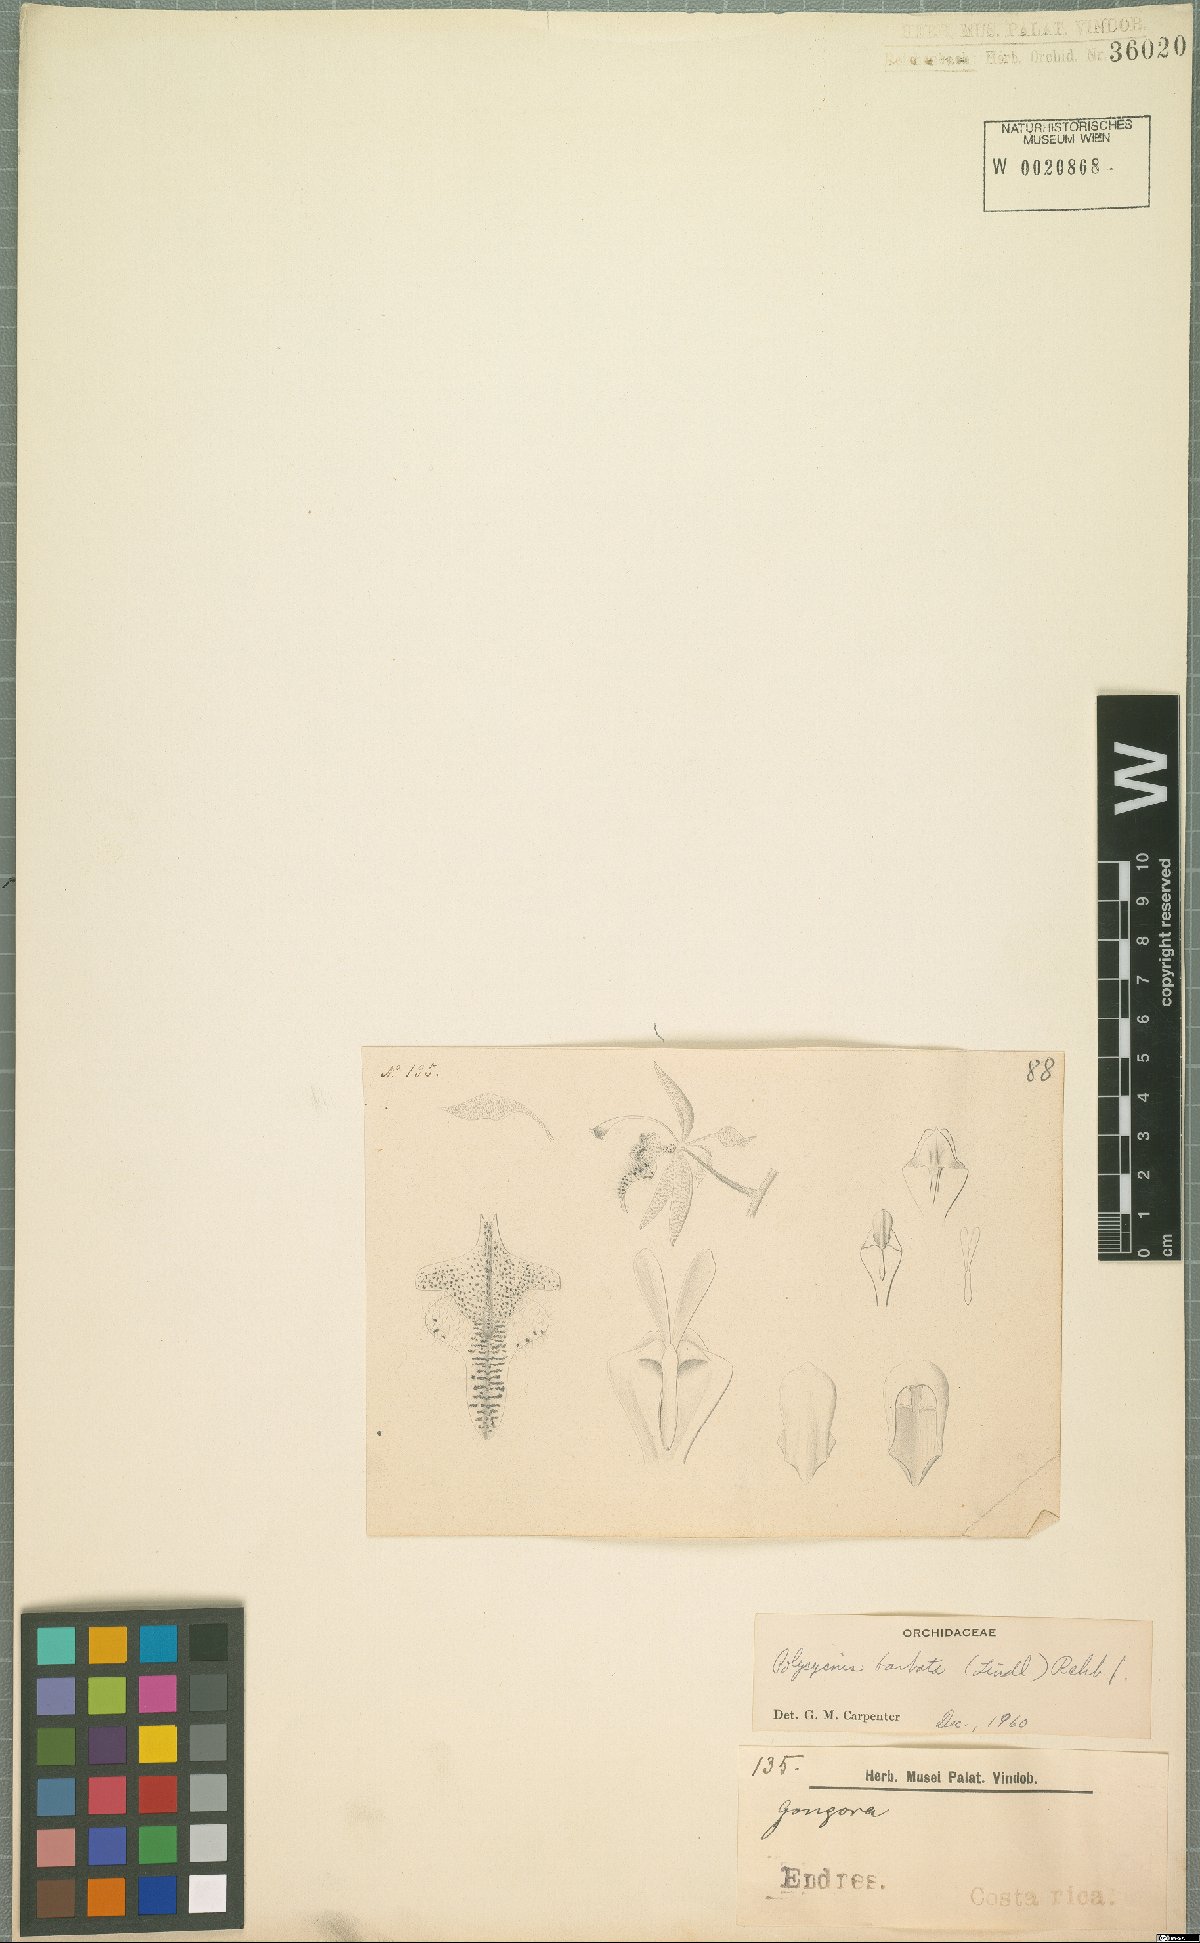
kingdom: Plantae
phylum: Tracheophyta
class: Liliopsida
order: Asparagales
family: Orchidaceae
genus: Polycycnis
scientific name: Polycycnis muscifera
